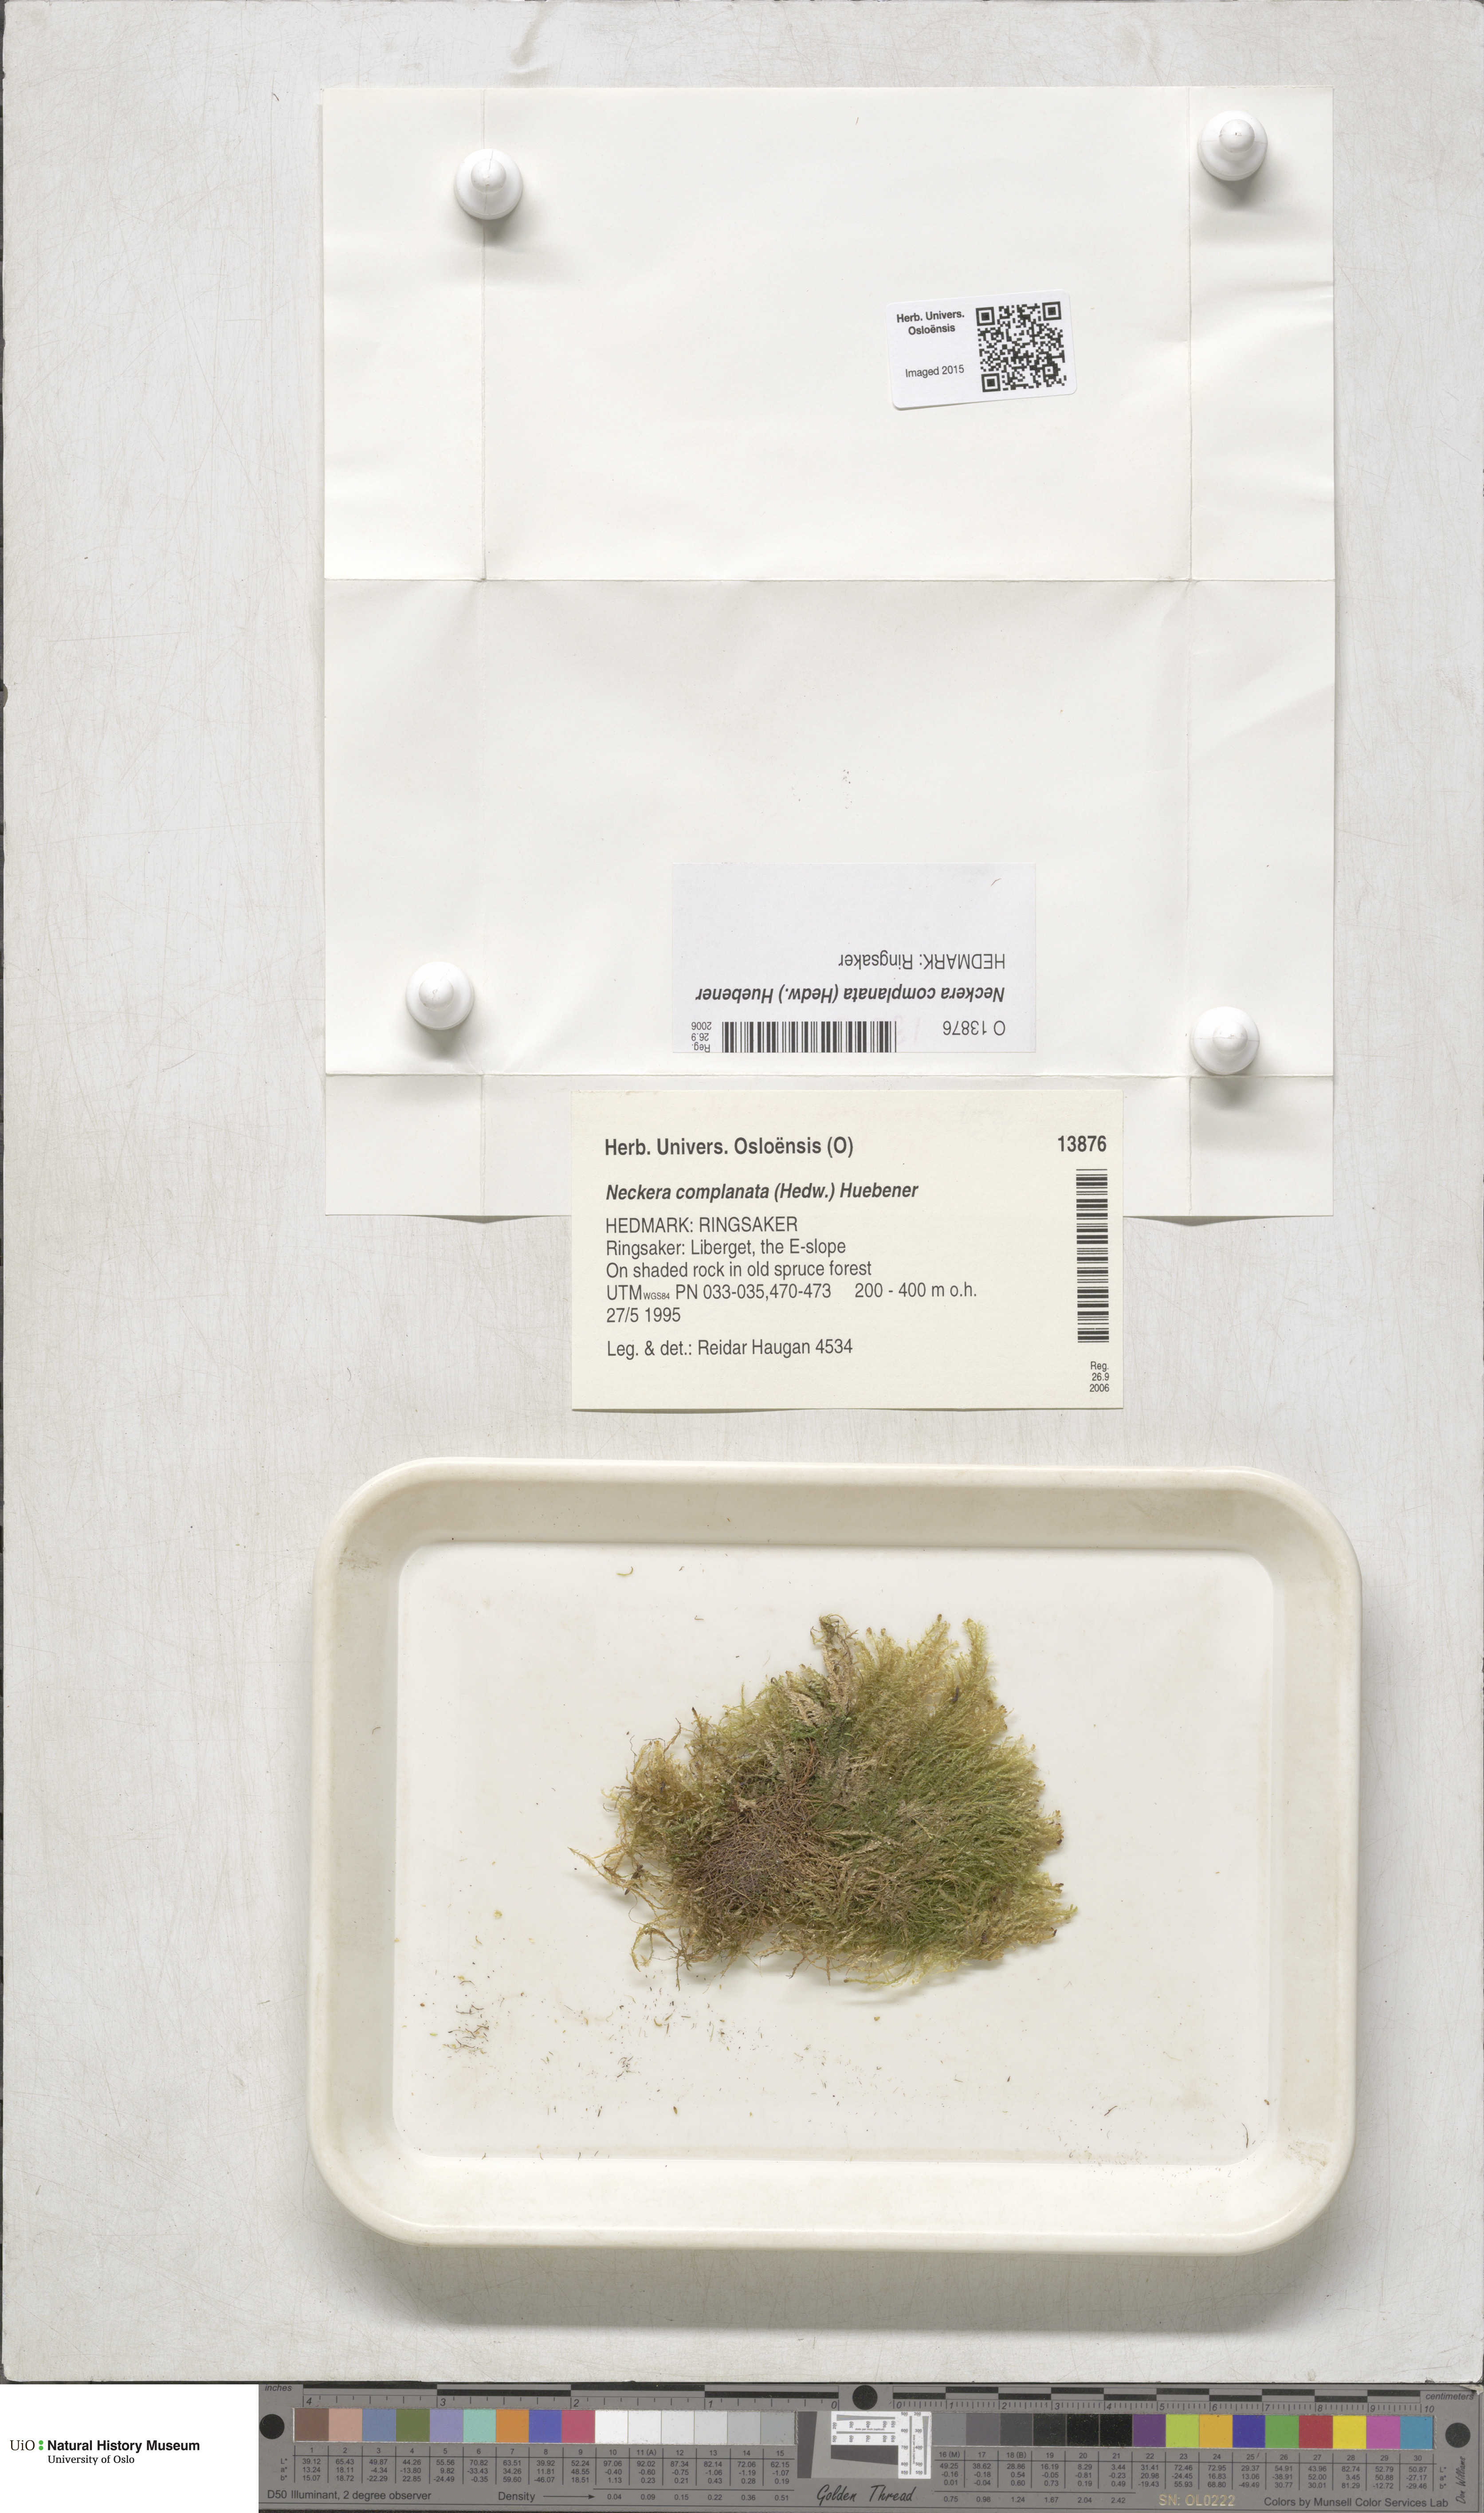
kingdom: Plantae
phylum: Bryophyta
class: Bryopsida
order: Hypnales
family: Neckeraceae
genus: Alleniella
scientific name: Alleniella complanata
